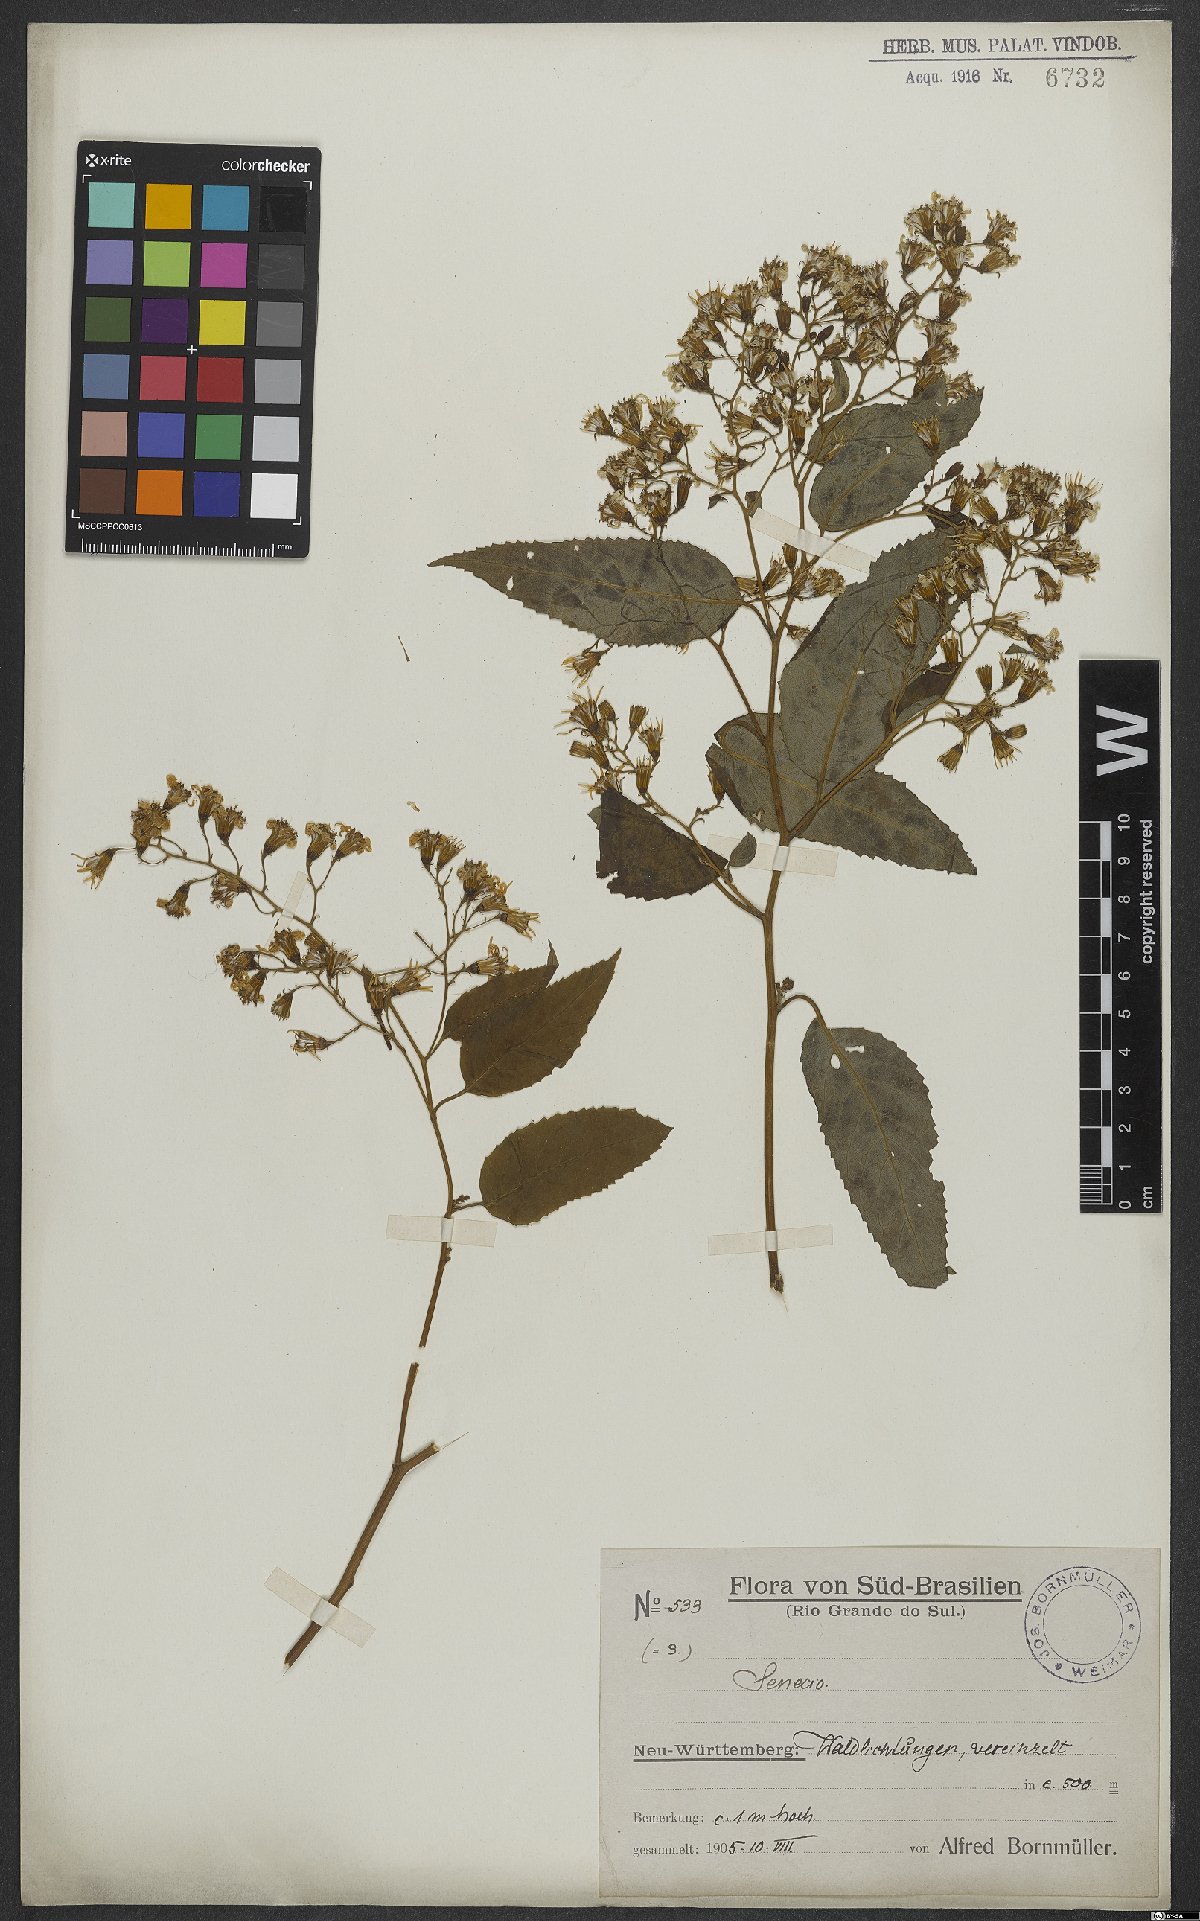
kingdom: Plantae
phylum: Tracheophyta
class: Magnoliopsida
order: Asterales
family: Asteraceae
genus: Senecio
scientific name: Senecio
